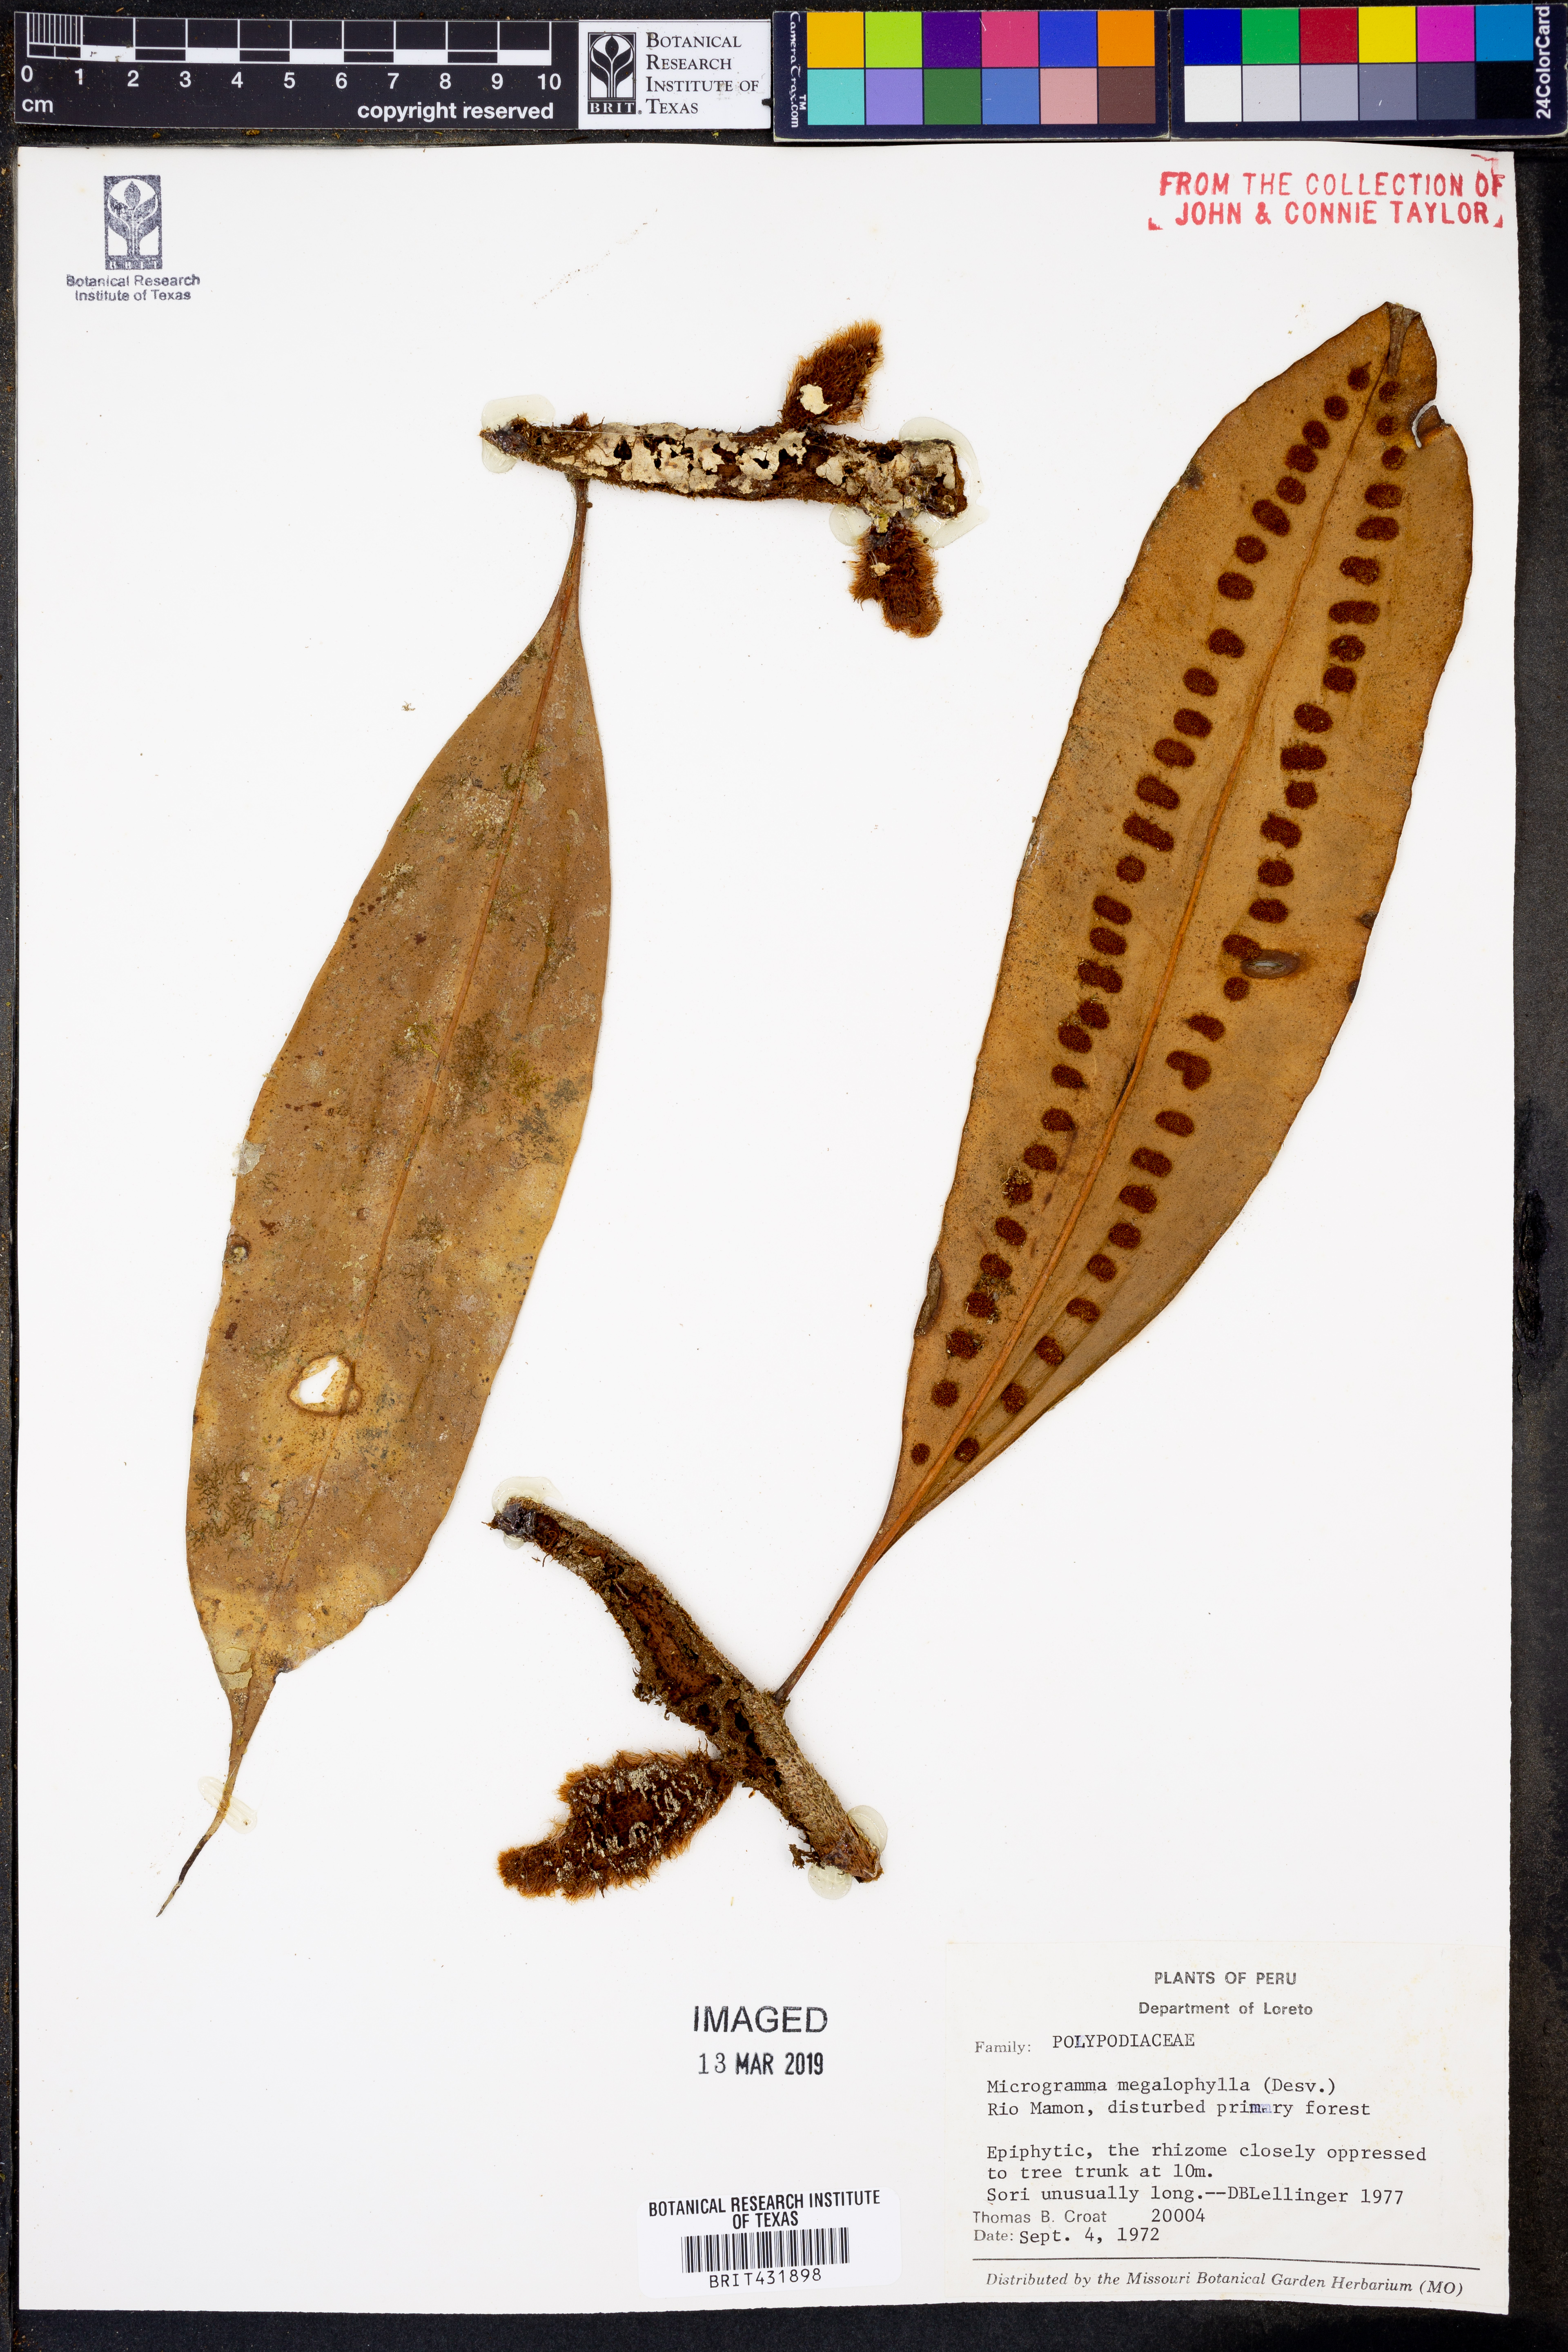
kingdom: Plantae
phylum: Tracheophyta
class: Polypodiopsida
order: Polypodiales
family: Polypodiaceae
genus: Microgramma
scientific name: Microgramma megalophylla
